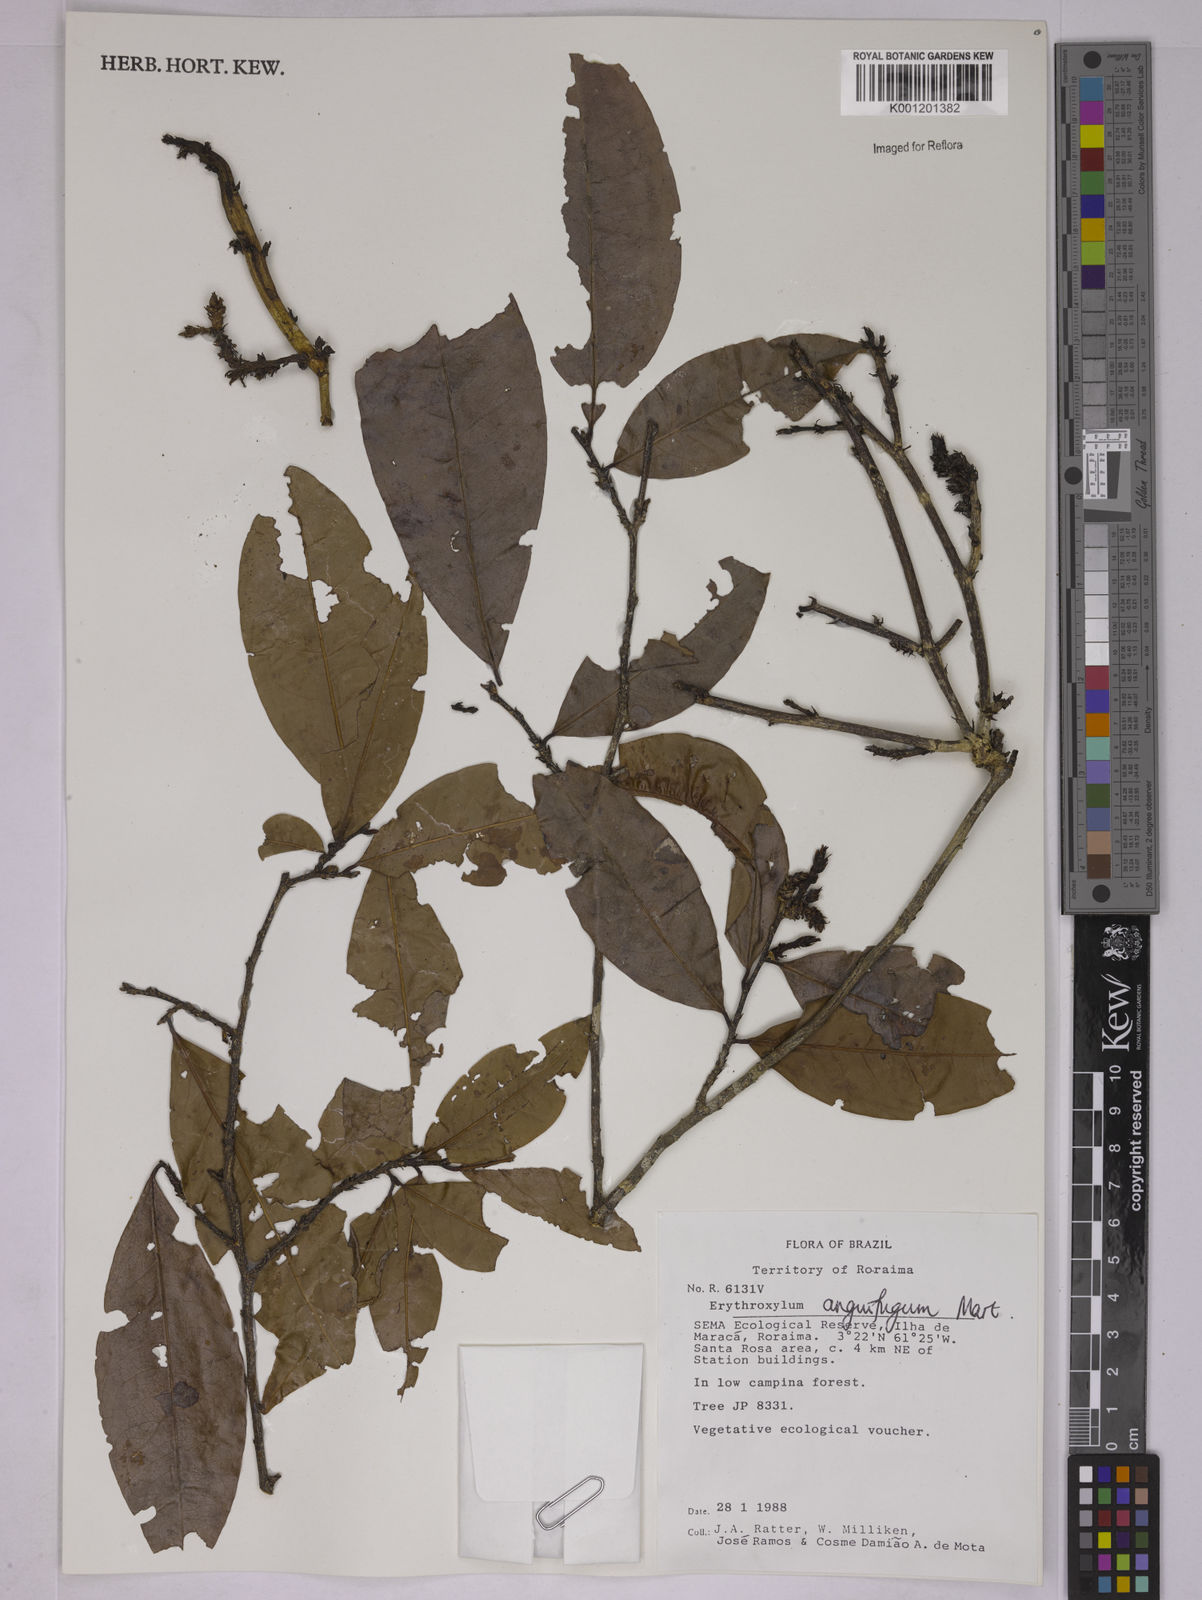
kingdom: Plantae
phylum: Tracheophyta
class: Magnoliopsida
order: Malpighiales
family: Erythroxylaceae
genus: Erythroxylum
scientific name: Erythroxylum anguifugum
